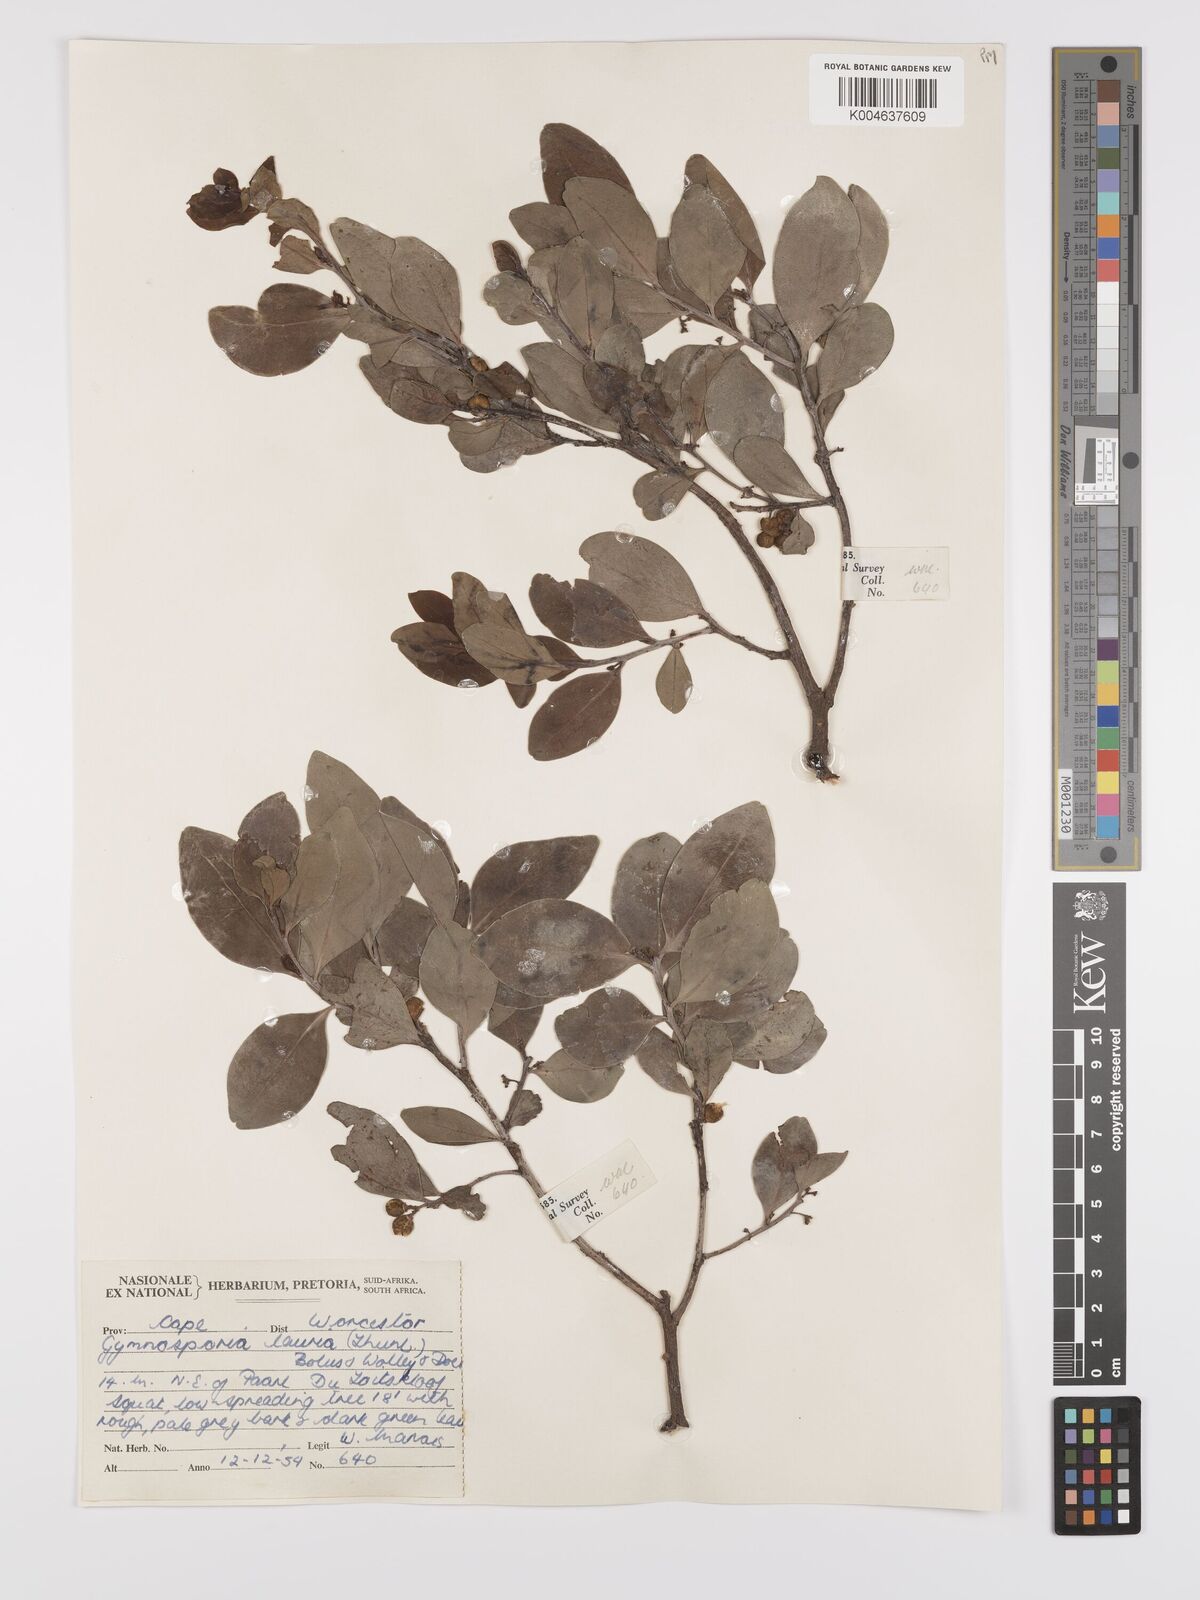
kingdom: Plantae
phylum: Tracheophyta
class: Magnoliopsida
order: Celastrales
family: Celastraceae
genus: Monteverdia
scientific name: Monteverdia laurina
